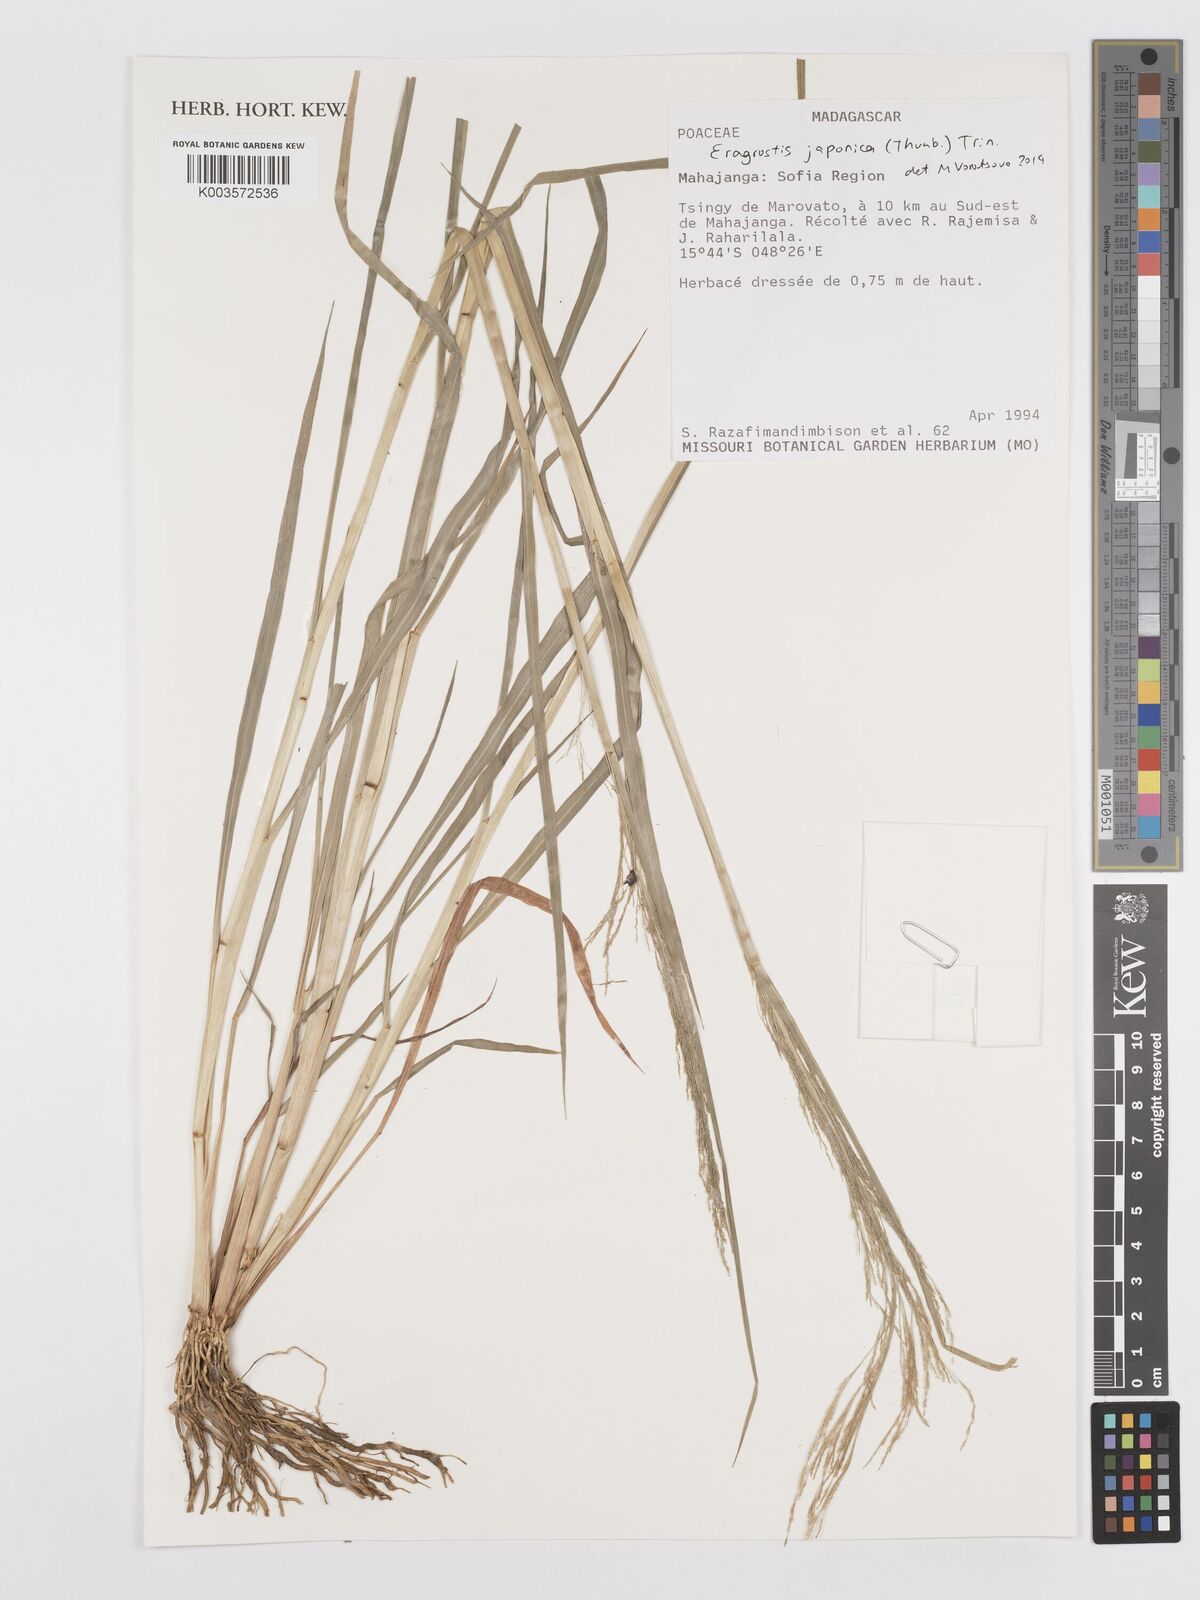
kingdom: Plantae
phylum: Tracheophyta
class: Liliopsida
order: Poales
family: Poaceae
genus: Eragrostis
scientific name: Eragrostis japonica
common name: Pond lovegrass
